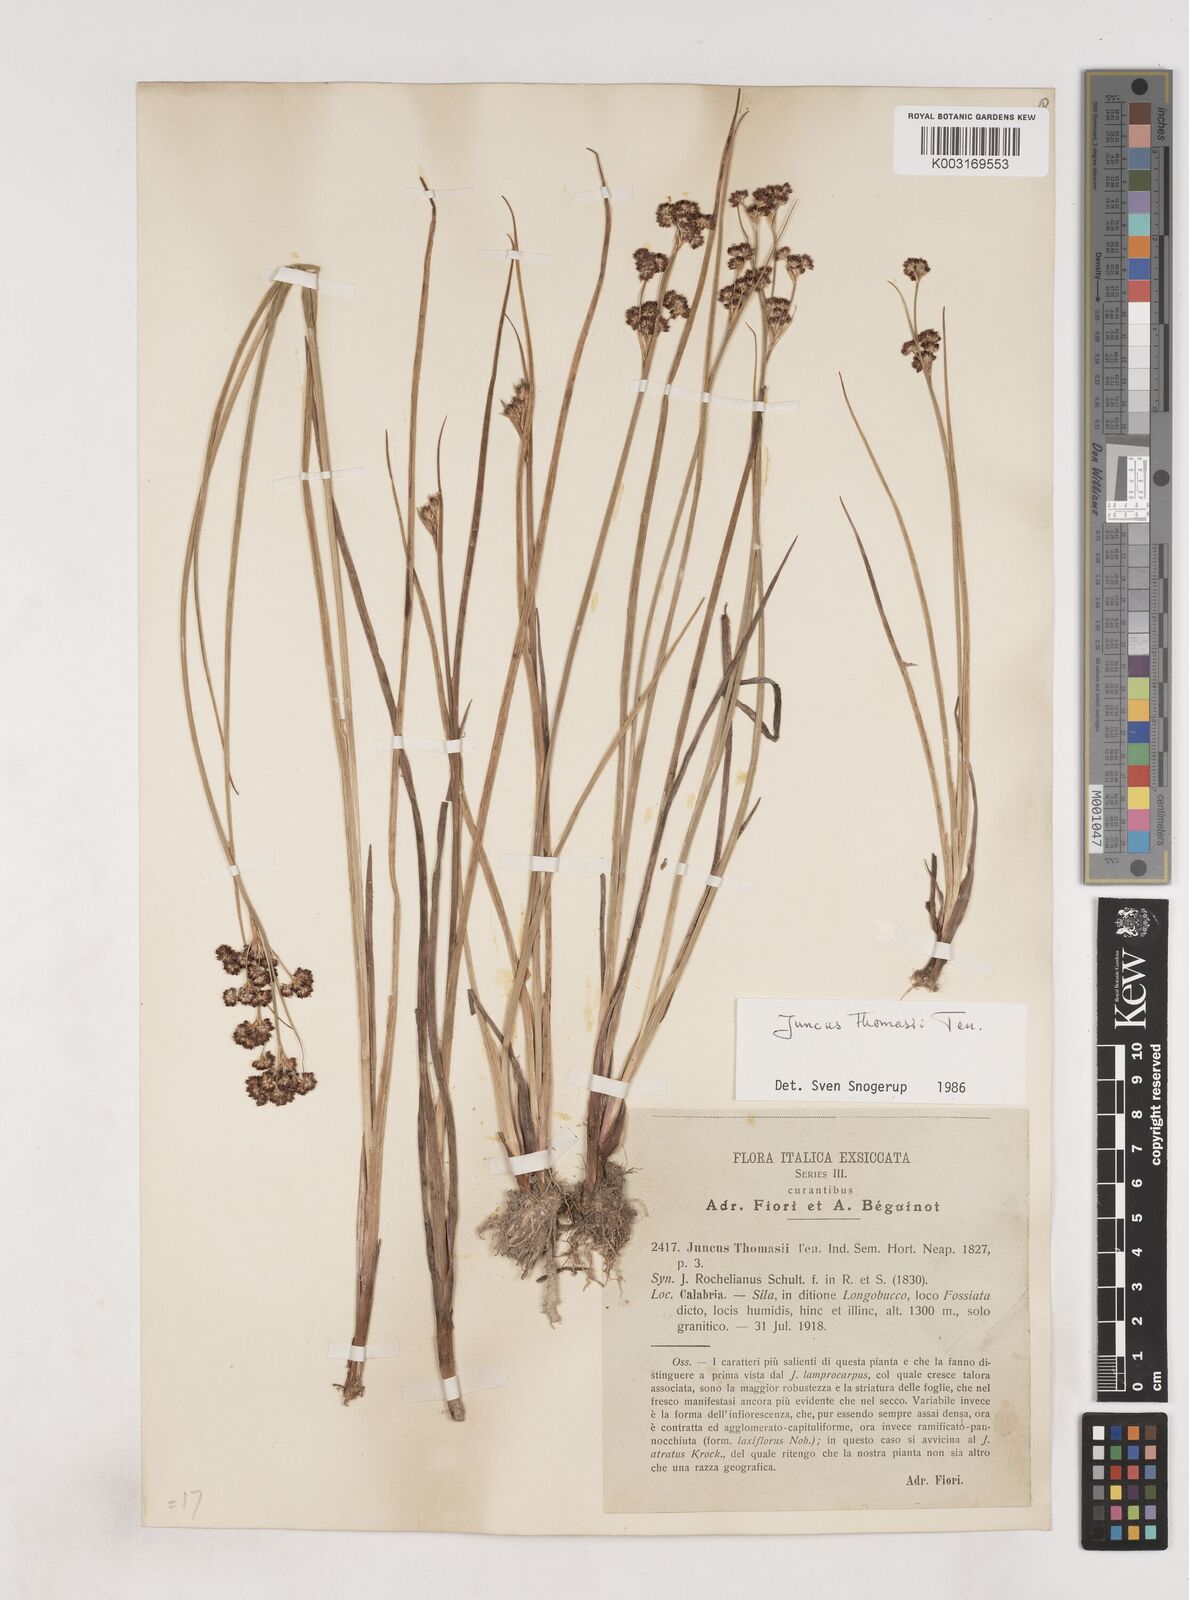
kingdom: Plantae
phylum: Tracheophyta
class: Liliopsida
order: Poales
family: Juncaceae
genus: Juncus
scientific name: Juncus thomasii
